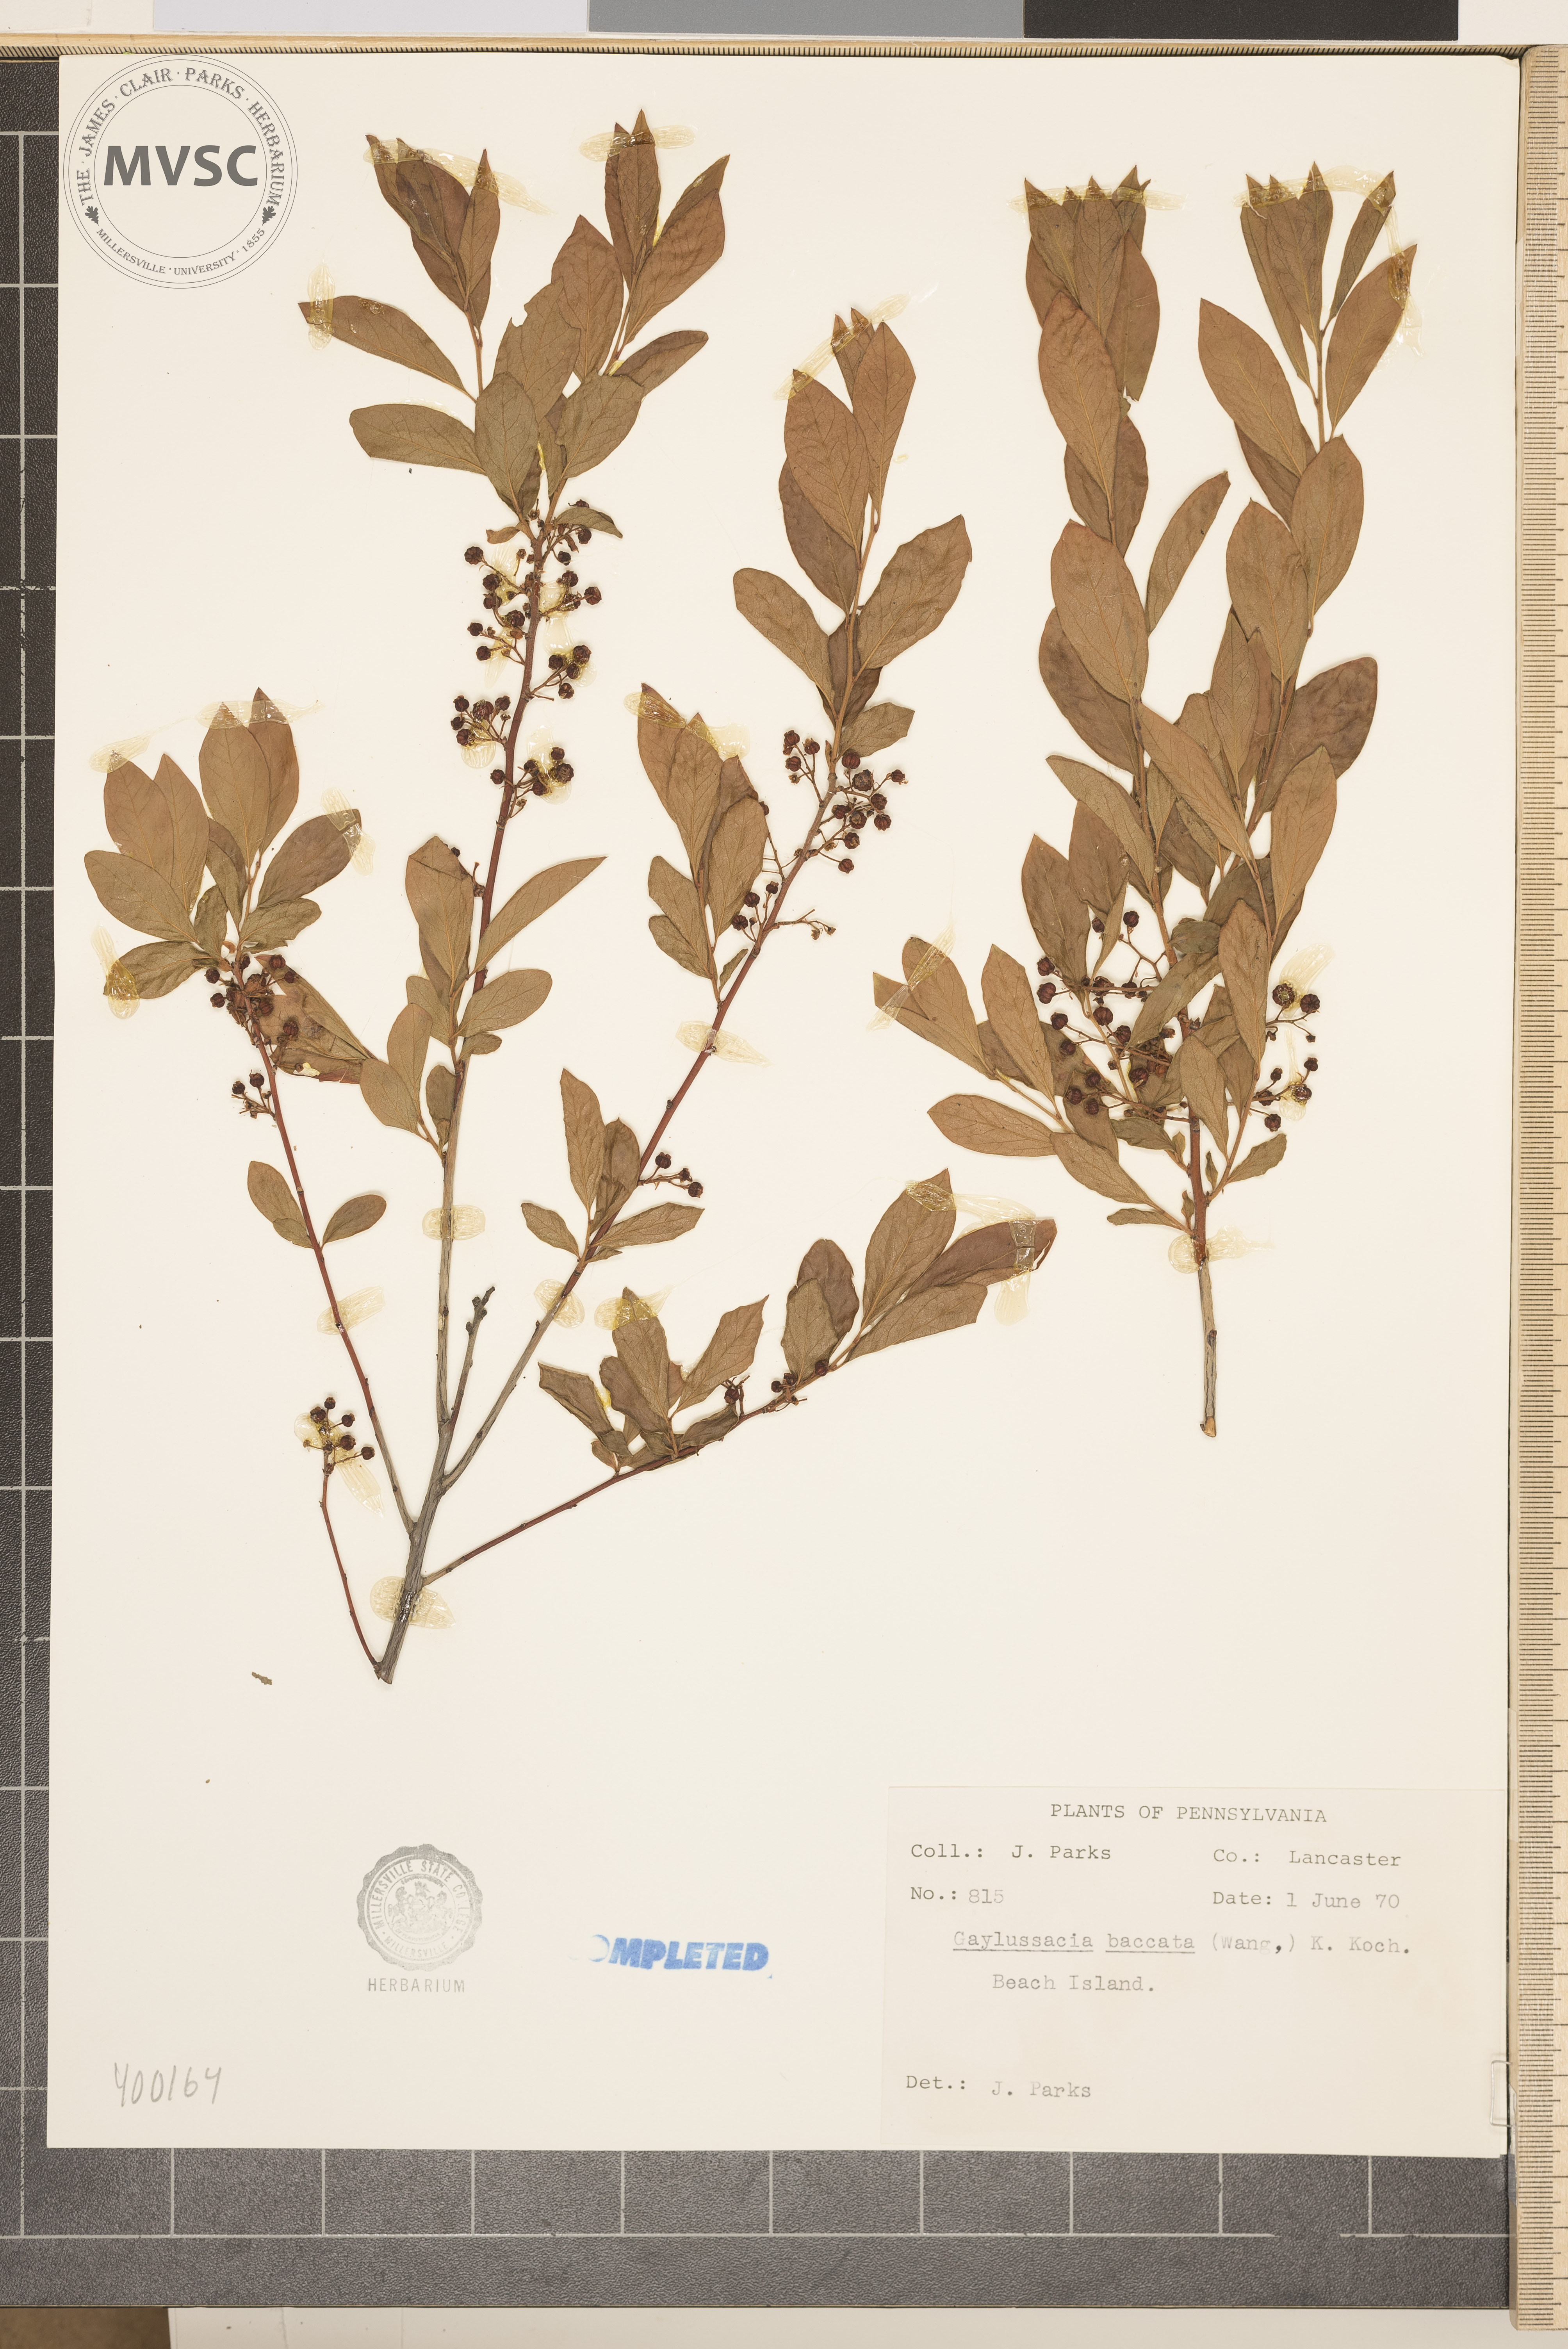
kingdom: Plantae
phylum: Tracheophyta
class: Magnoliopsida
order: Ericales
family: Ericaceae
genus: Gaylussacia
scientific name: Gaylussacia baccata
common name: Black huckleberry
